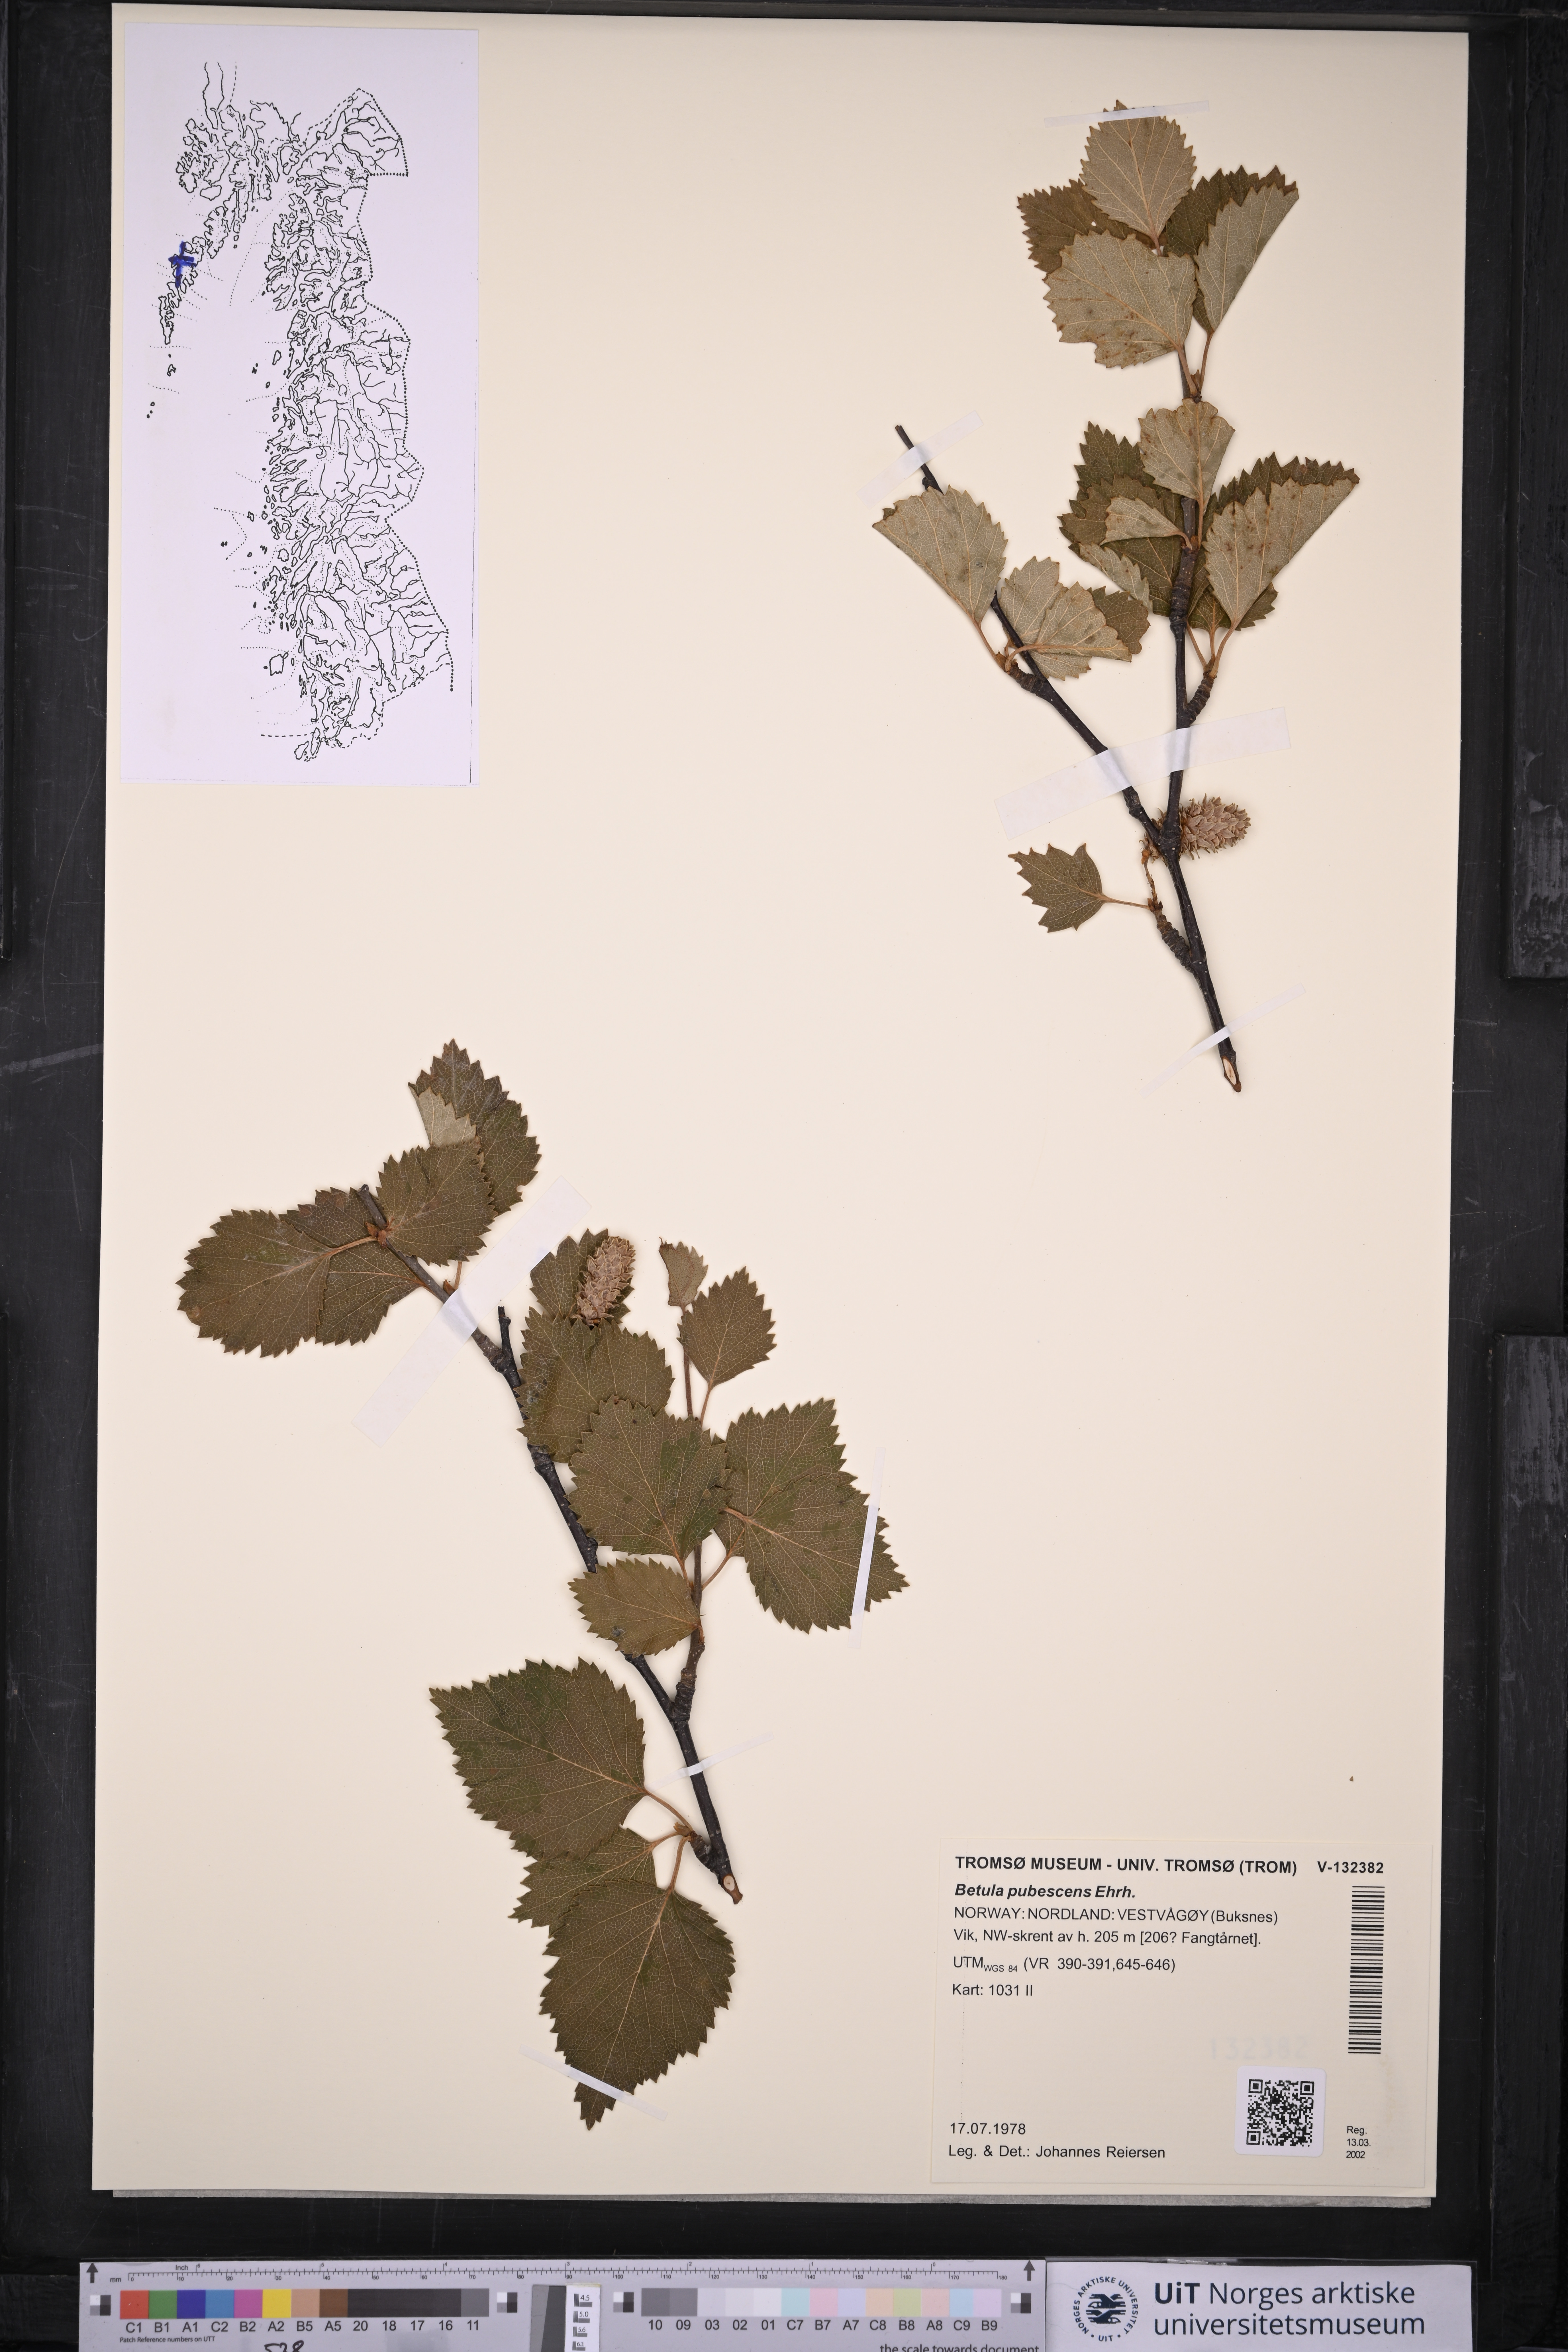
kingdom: Plantae
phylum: Tracheophyta
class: Magnoliopsida
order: Fagales
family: Betulaceae
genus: Betula
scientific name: Betula pubescens
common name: Downy birch
